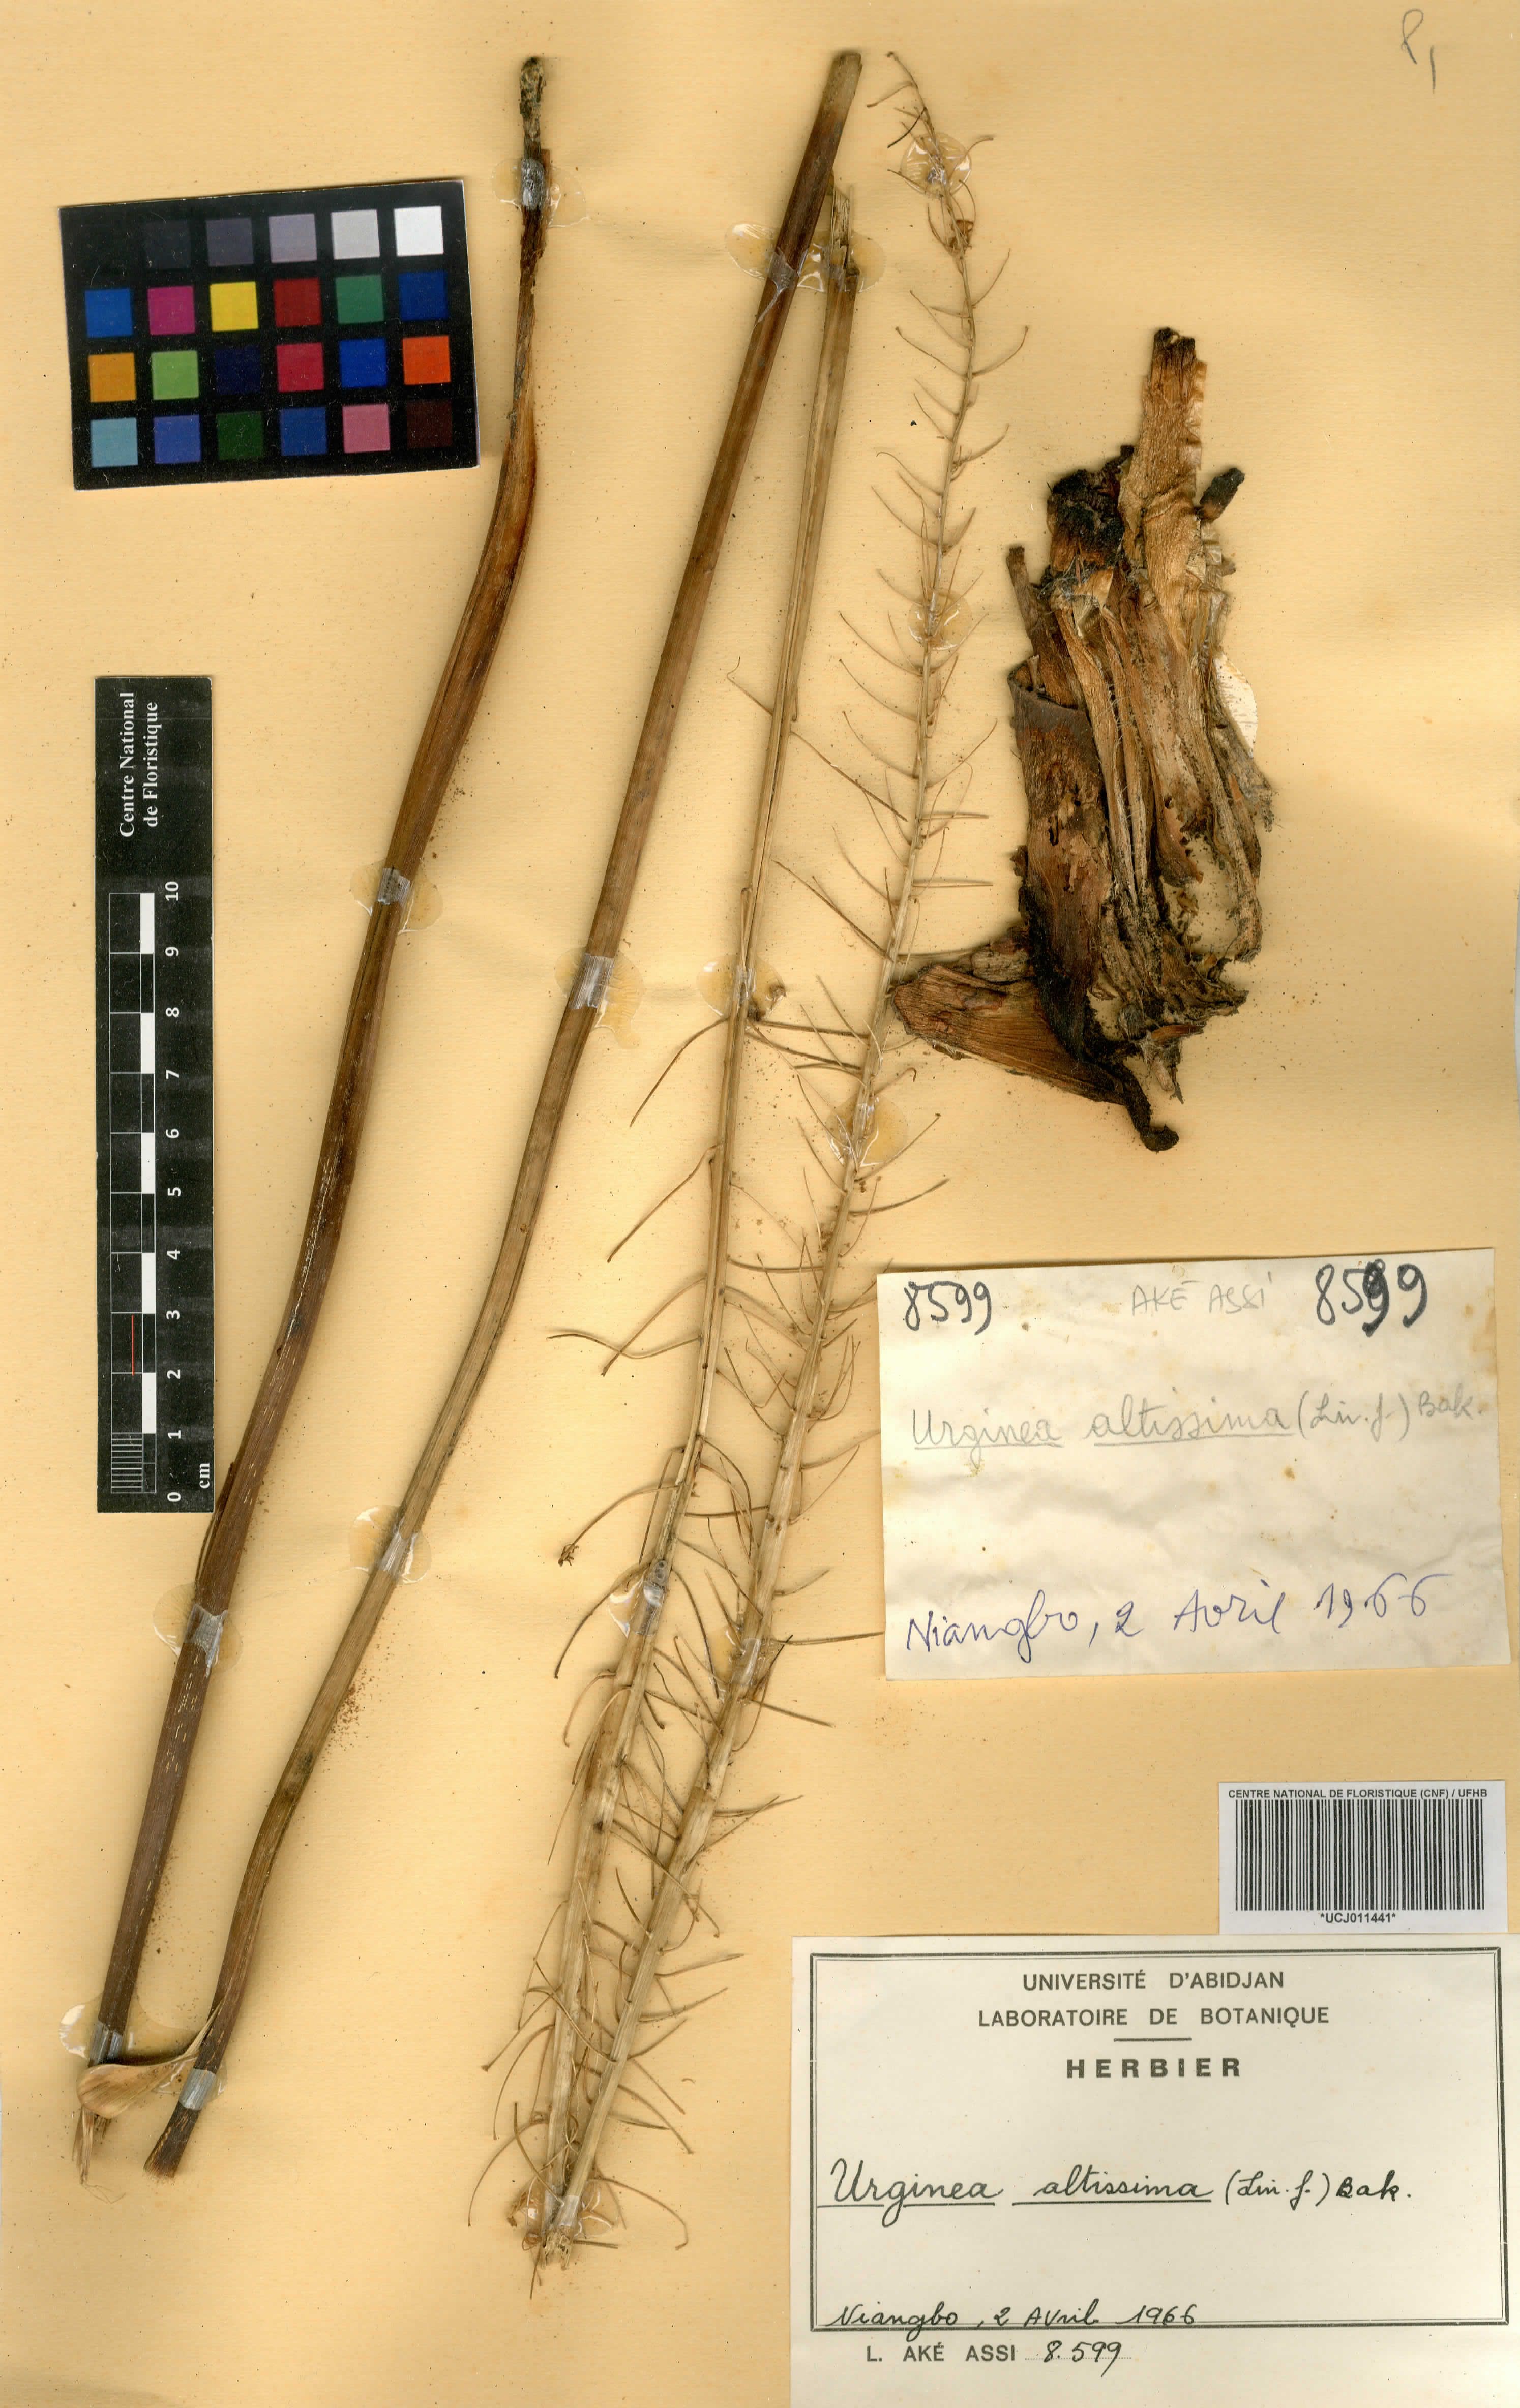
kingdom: Plantae
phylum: Tracheophyta
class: Liliopsida
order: Asparagales
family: Asparagaceae
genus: Drimia
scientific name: Drimia altissima
